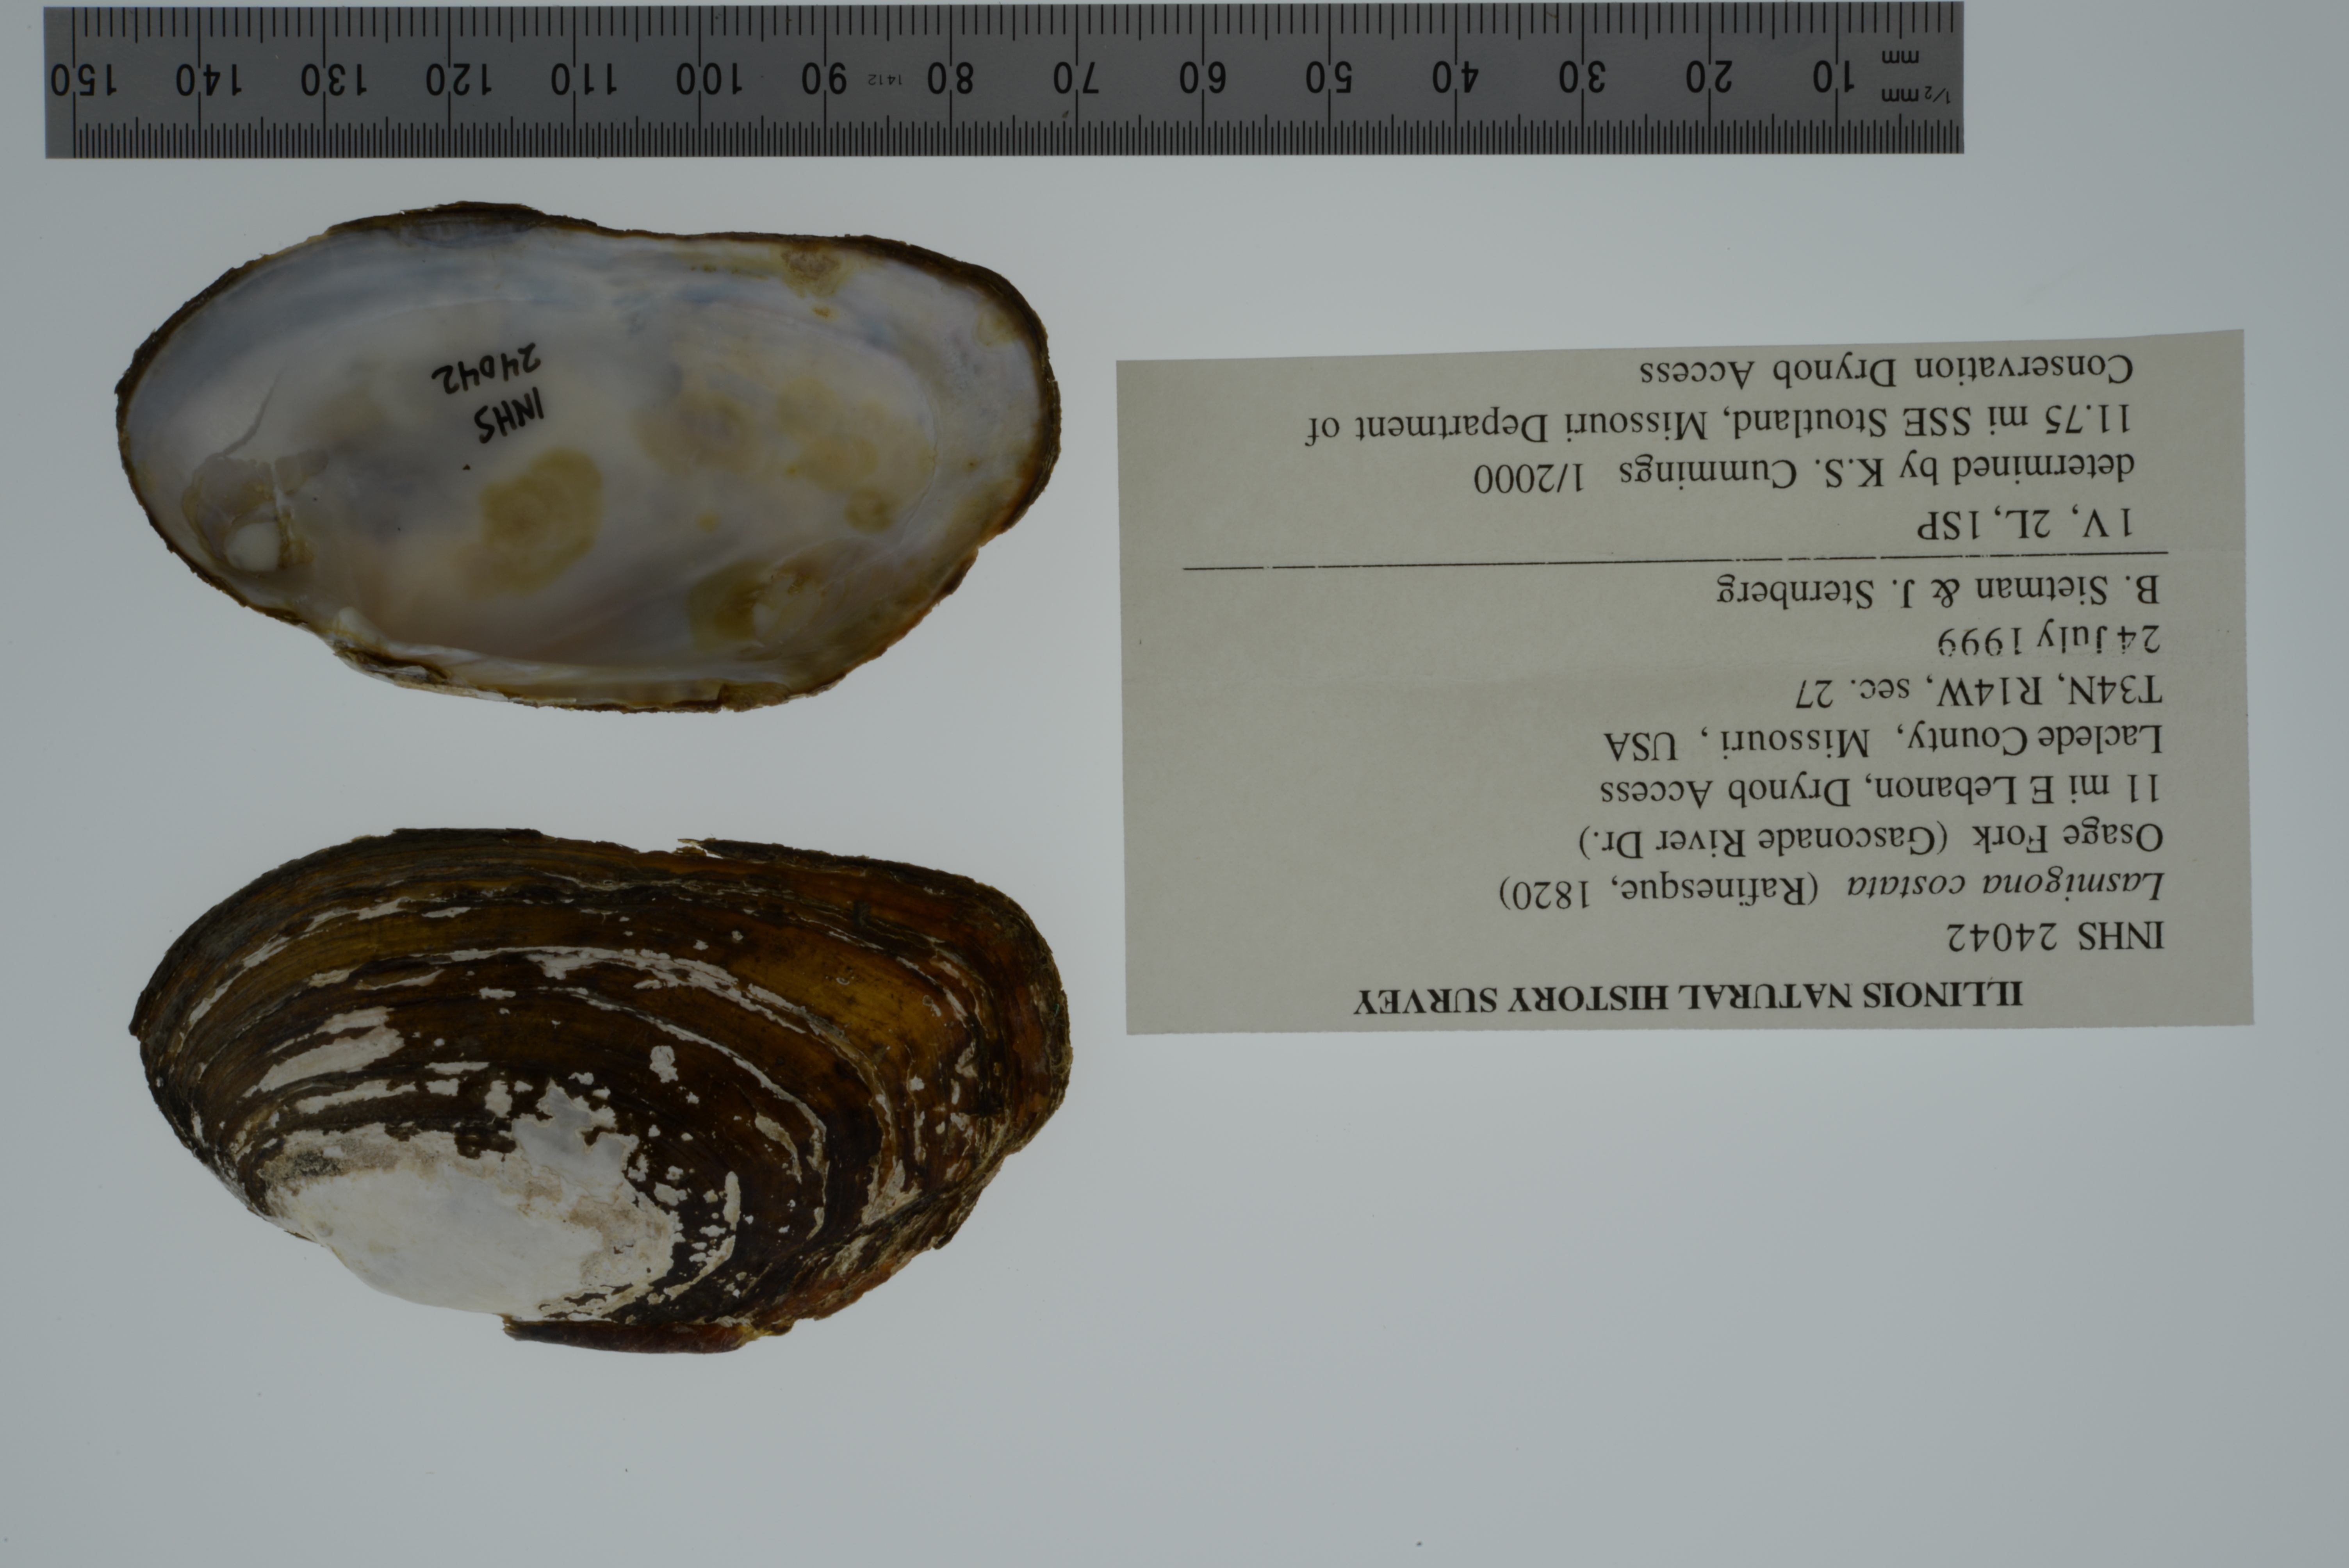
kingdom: Animalia
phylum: Mollusca
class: Bivalvia
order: Unionida
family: Unionidae
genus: Lasmigona
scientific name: Lasmigona costata
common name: Flutedshell
